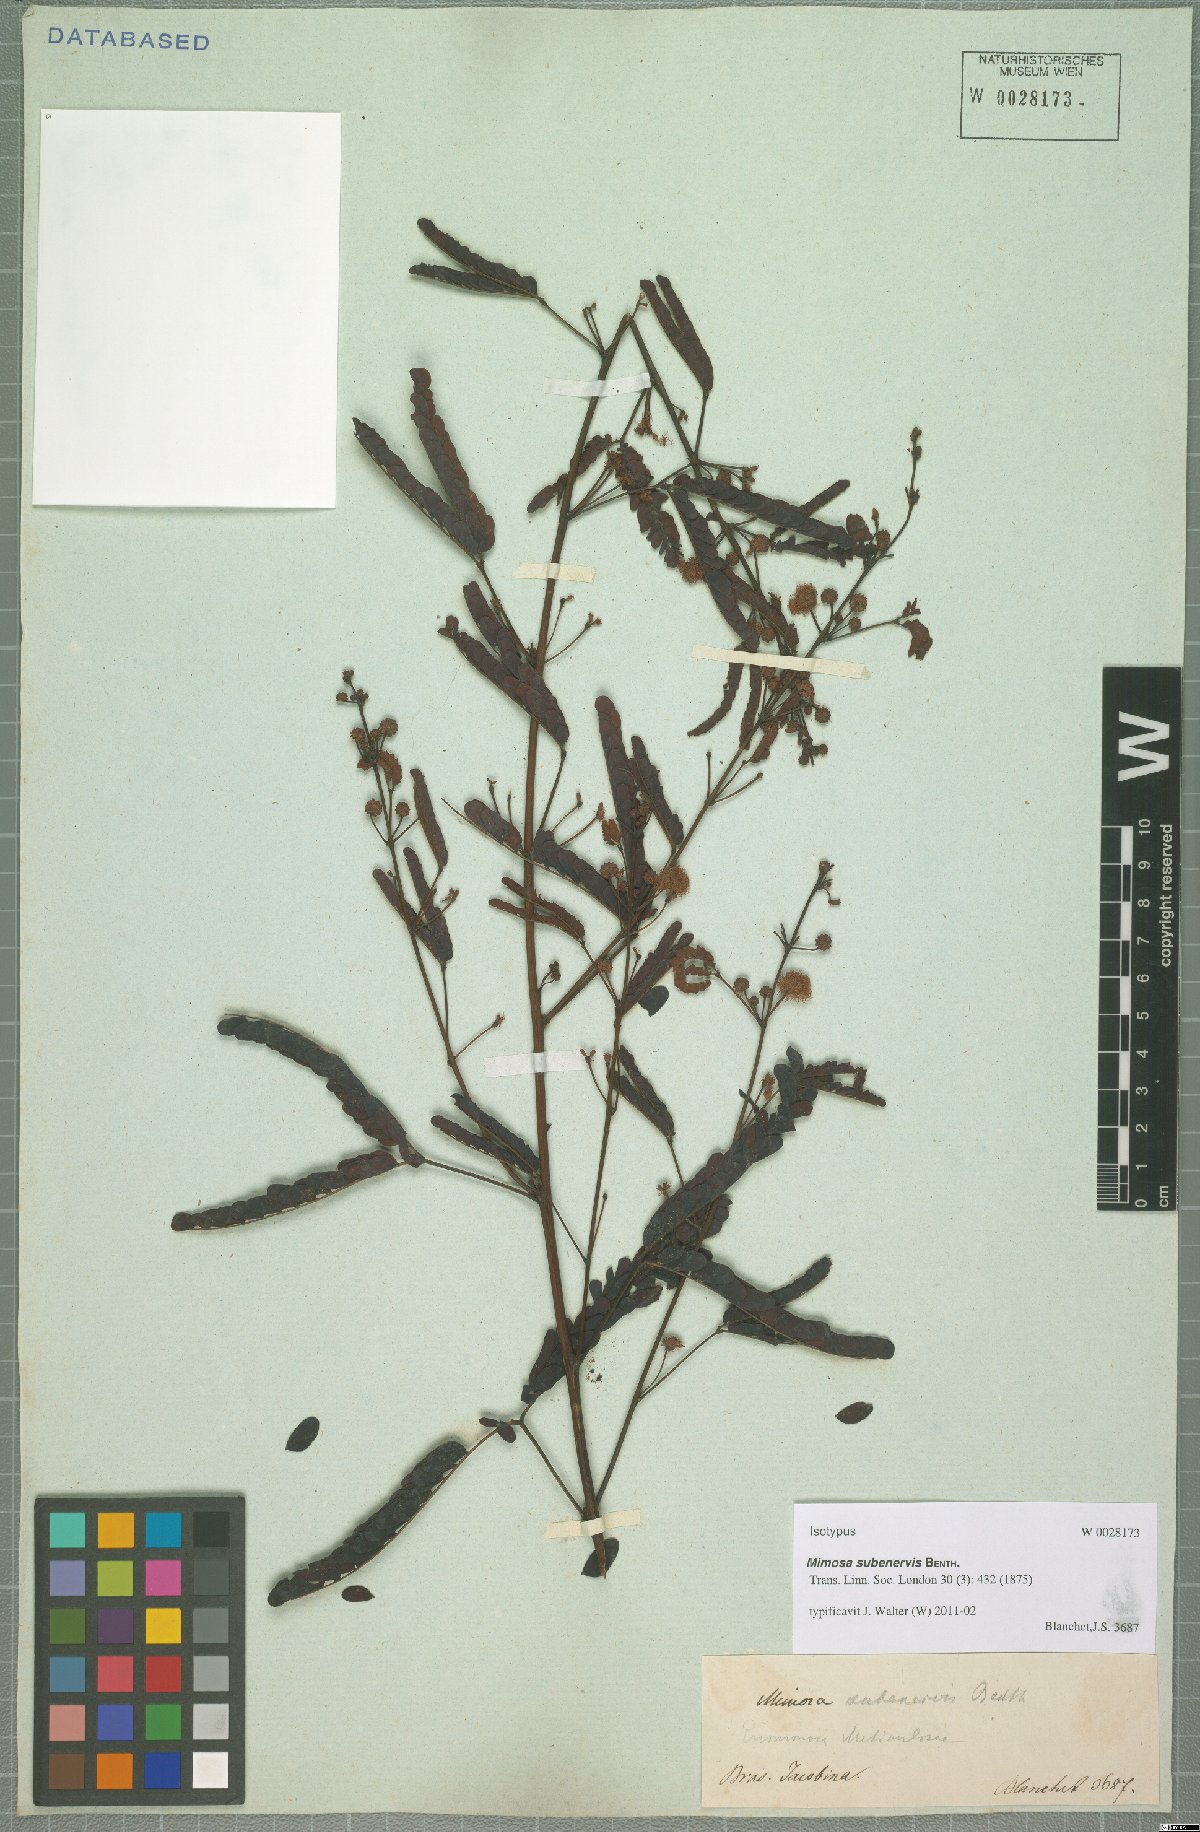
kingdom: Plantae
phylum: Tracheophyta
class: Magnoliopsida
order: Fabales
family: Fabaceae
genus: Mimosa
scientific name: Mimosa subenervis
